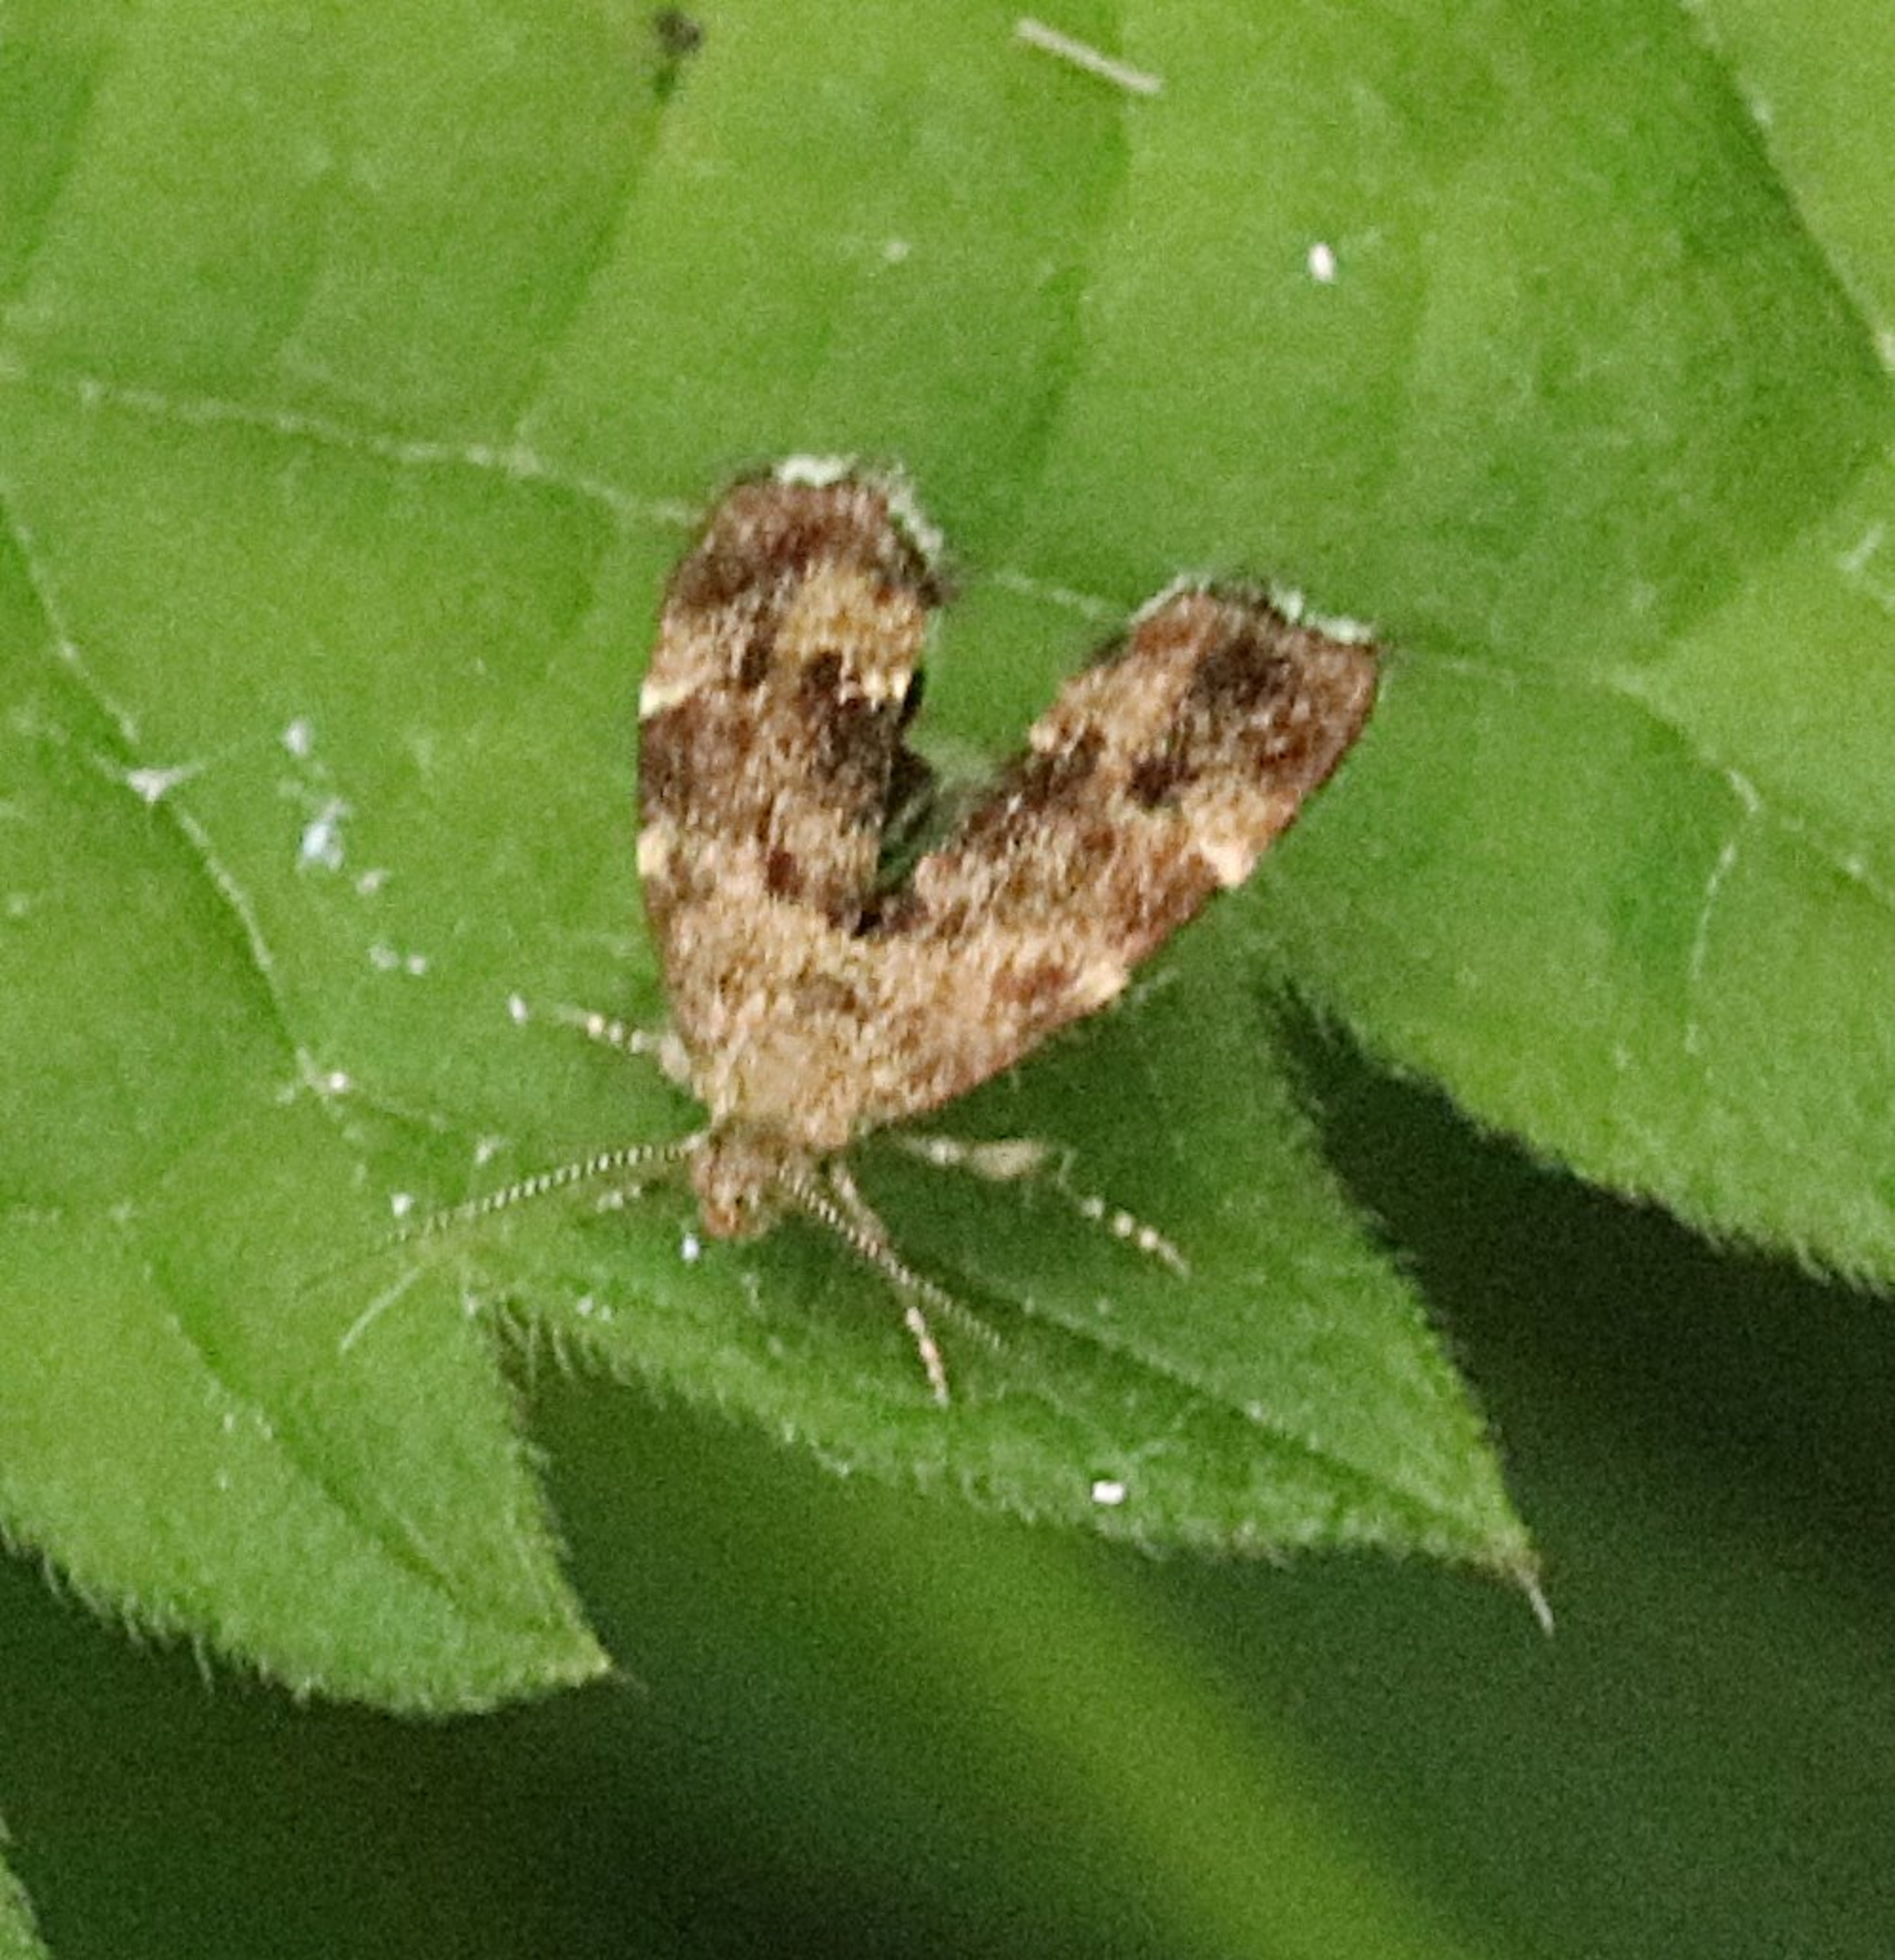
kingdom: Animalia
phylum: Arthropoda
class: Insecta
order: Lepidoptera
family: Choreutidae
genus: Anthophila
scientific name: Anthophila fabriciana
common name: Bredvinget nældevikler
